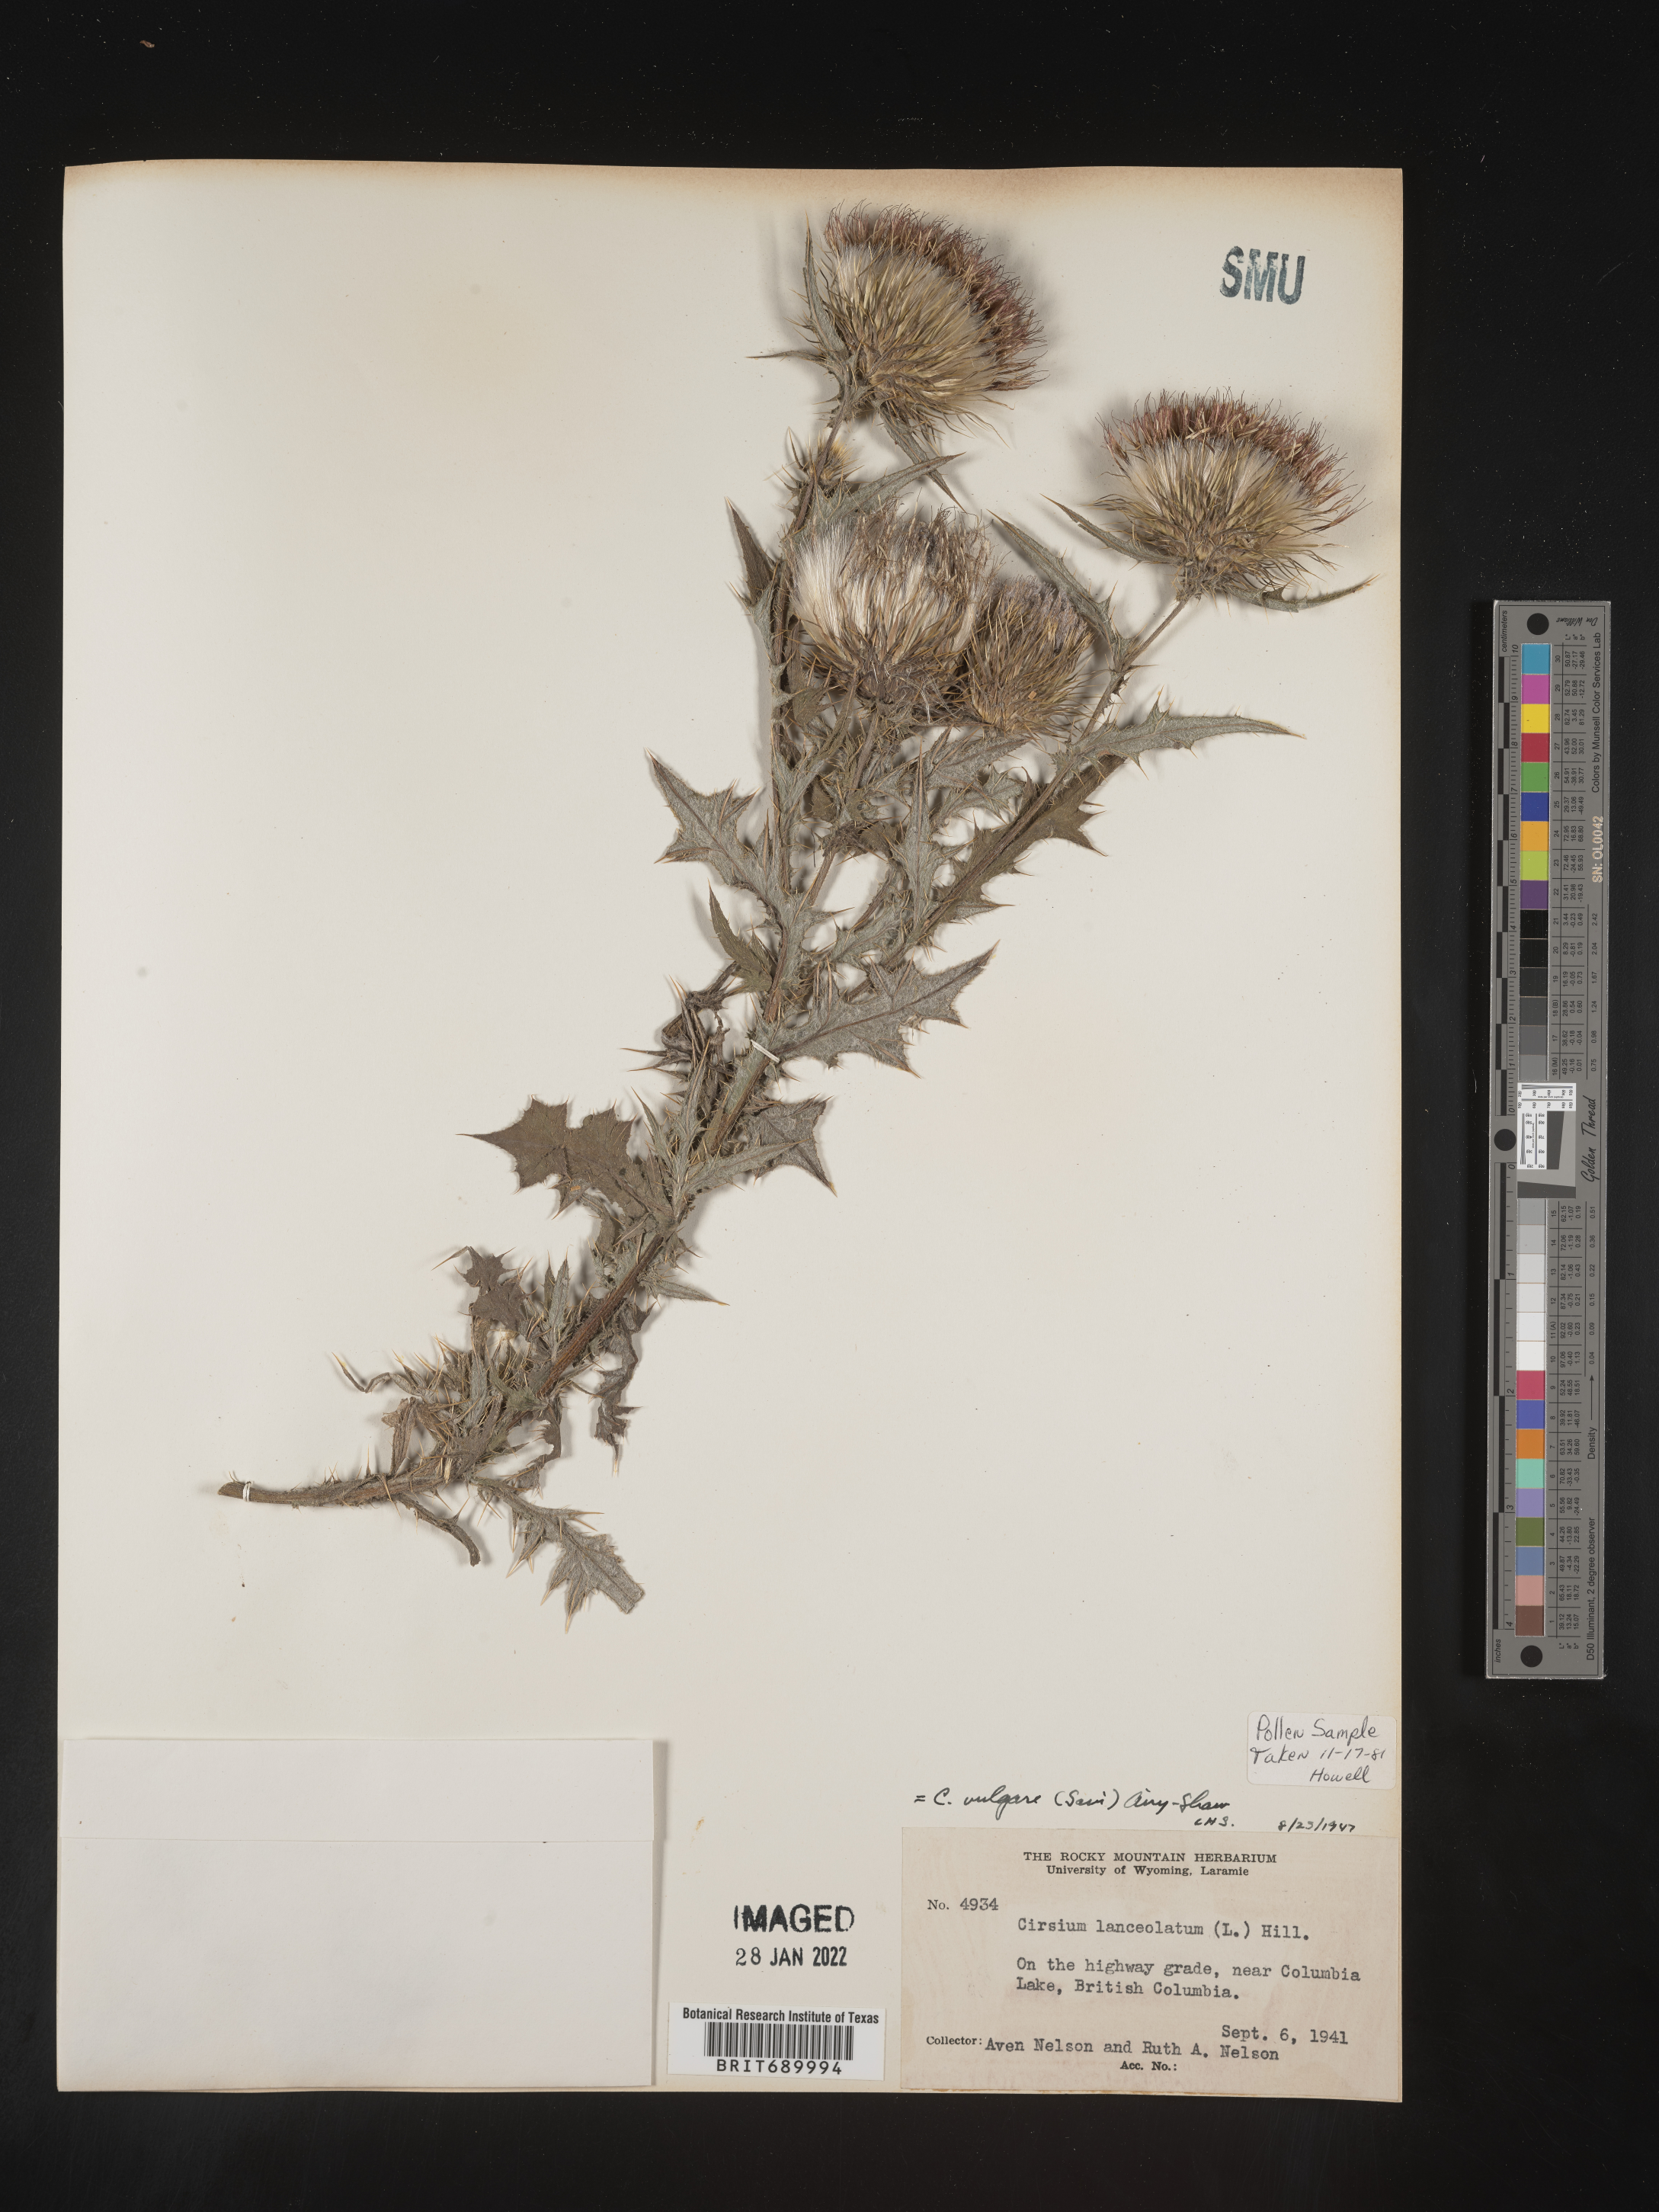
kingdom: Plantae
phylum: Tracheophyta
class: Magnoliopsida
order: Asterales
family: Asteraceae
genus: Cirsium
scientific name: Cirsium vulgare
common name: Bull thistle
